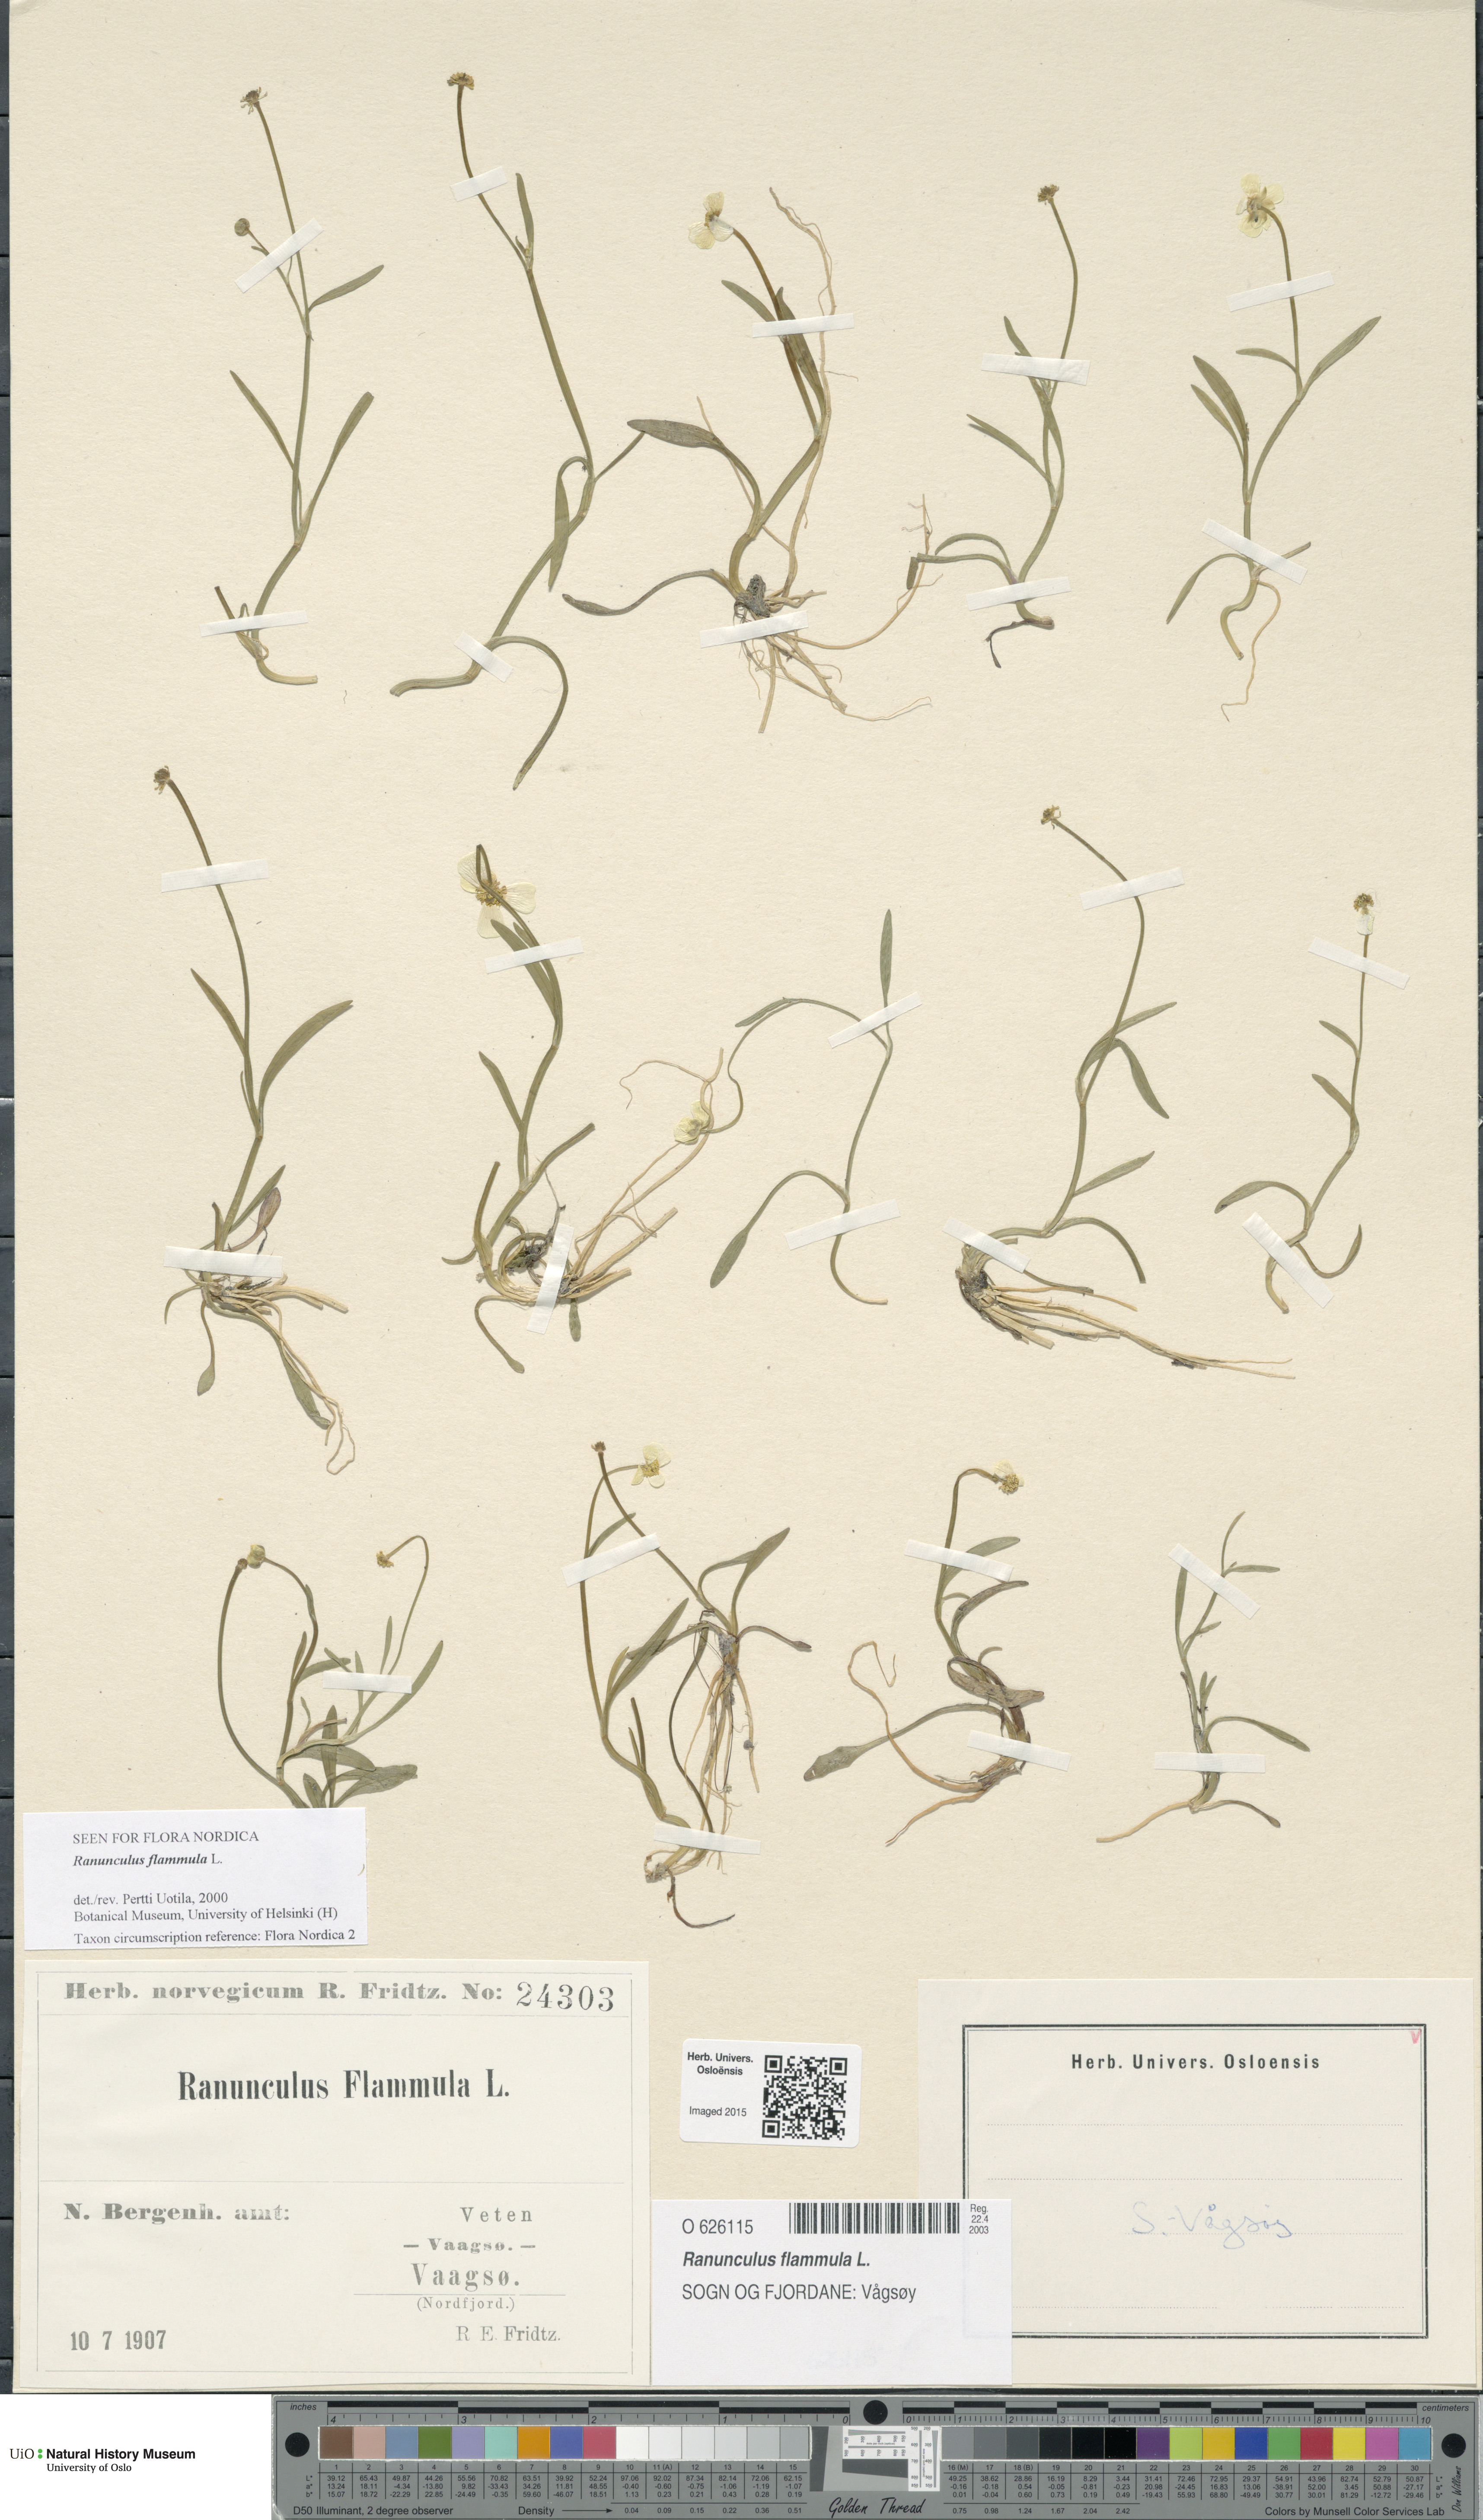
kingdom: Plantae
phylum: Tracheophyta
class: Magnoliopsida
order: Ranunculales
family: Ranunculaceae
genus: Ranunculus
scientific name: Ranunculus flammula
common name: Lesser spearwort
